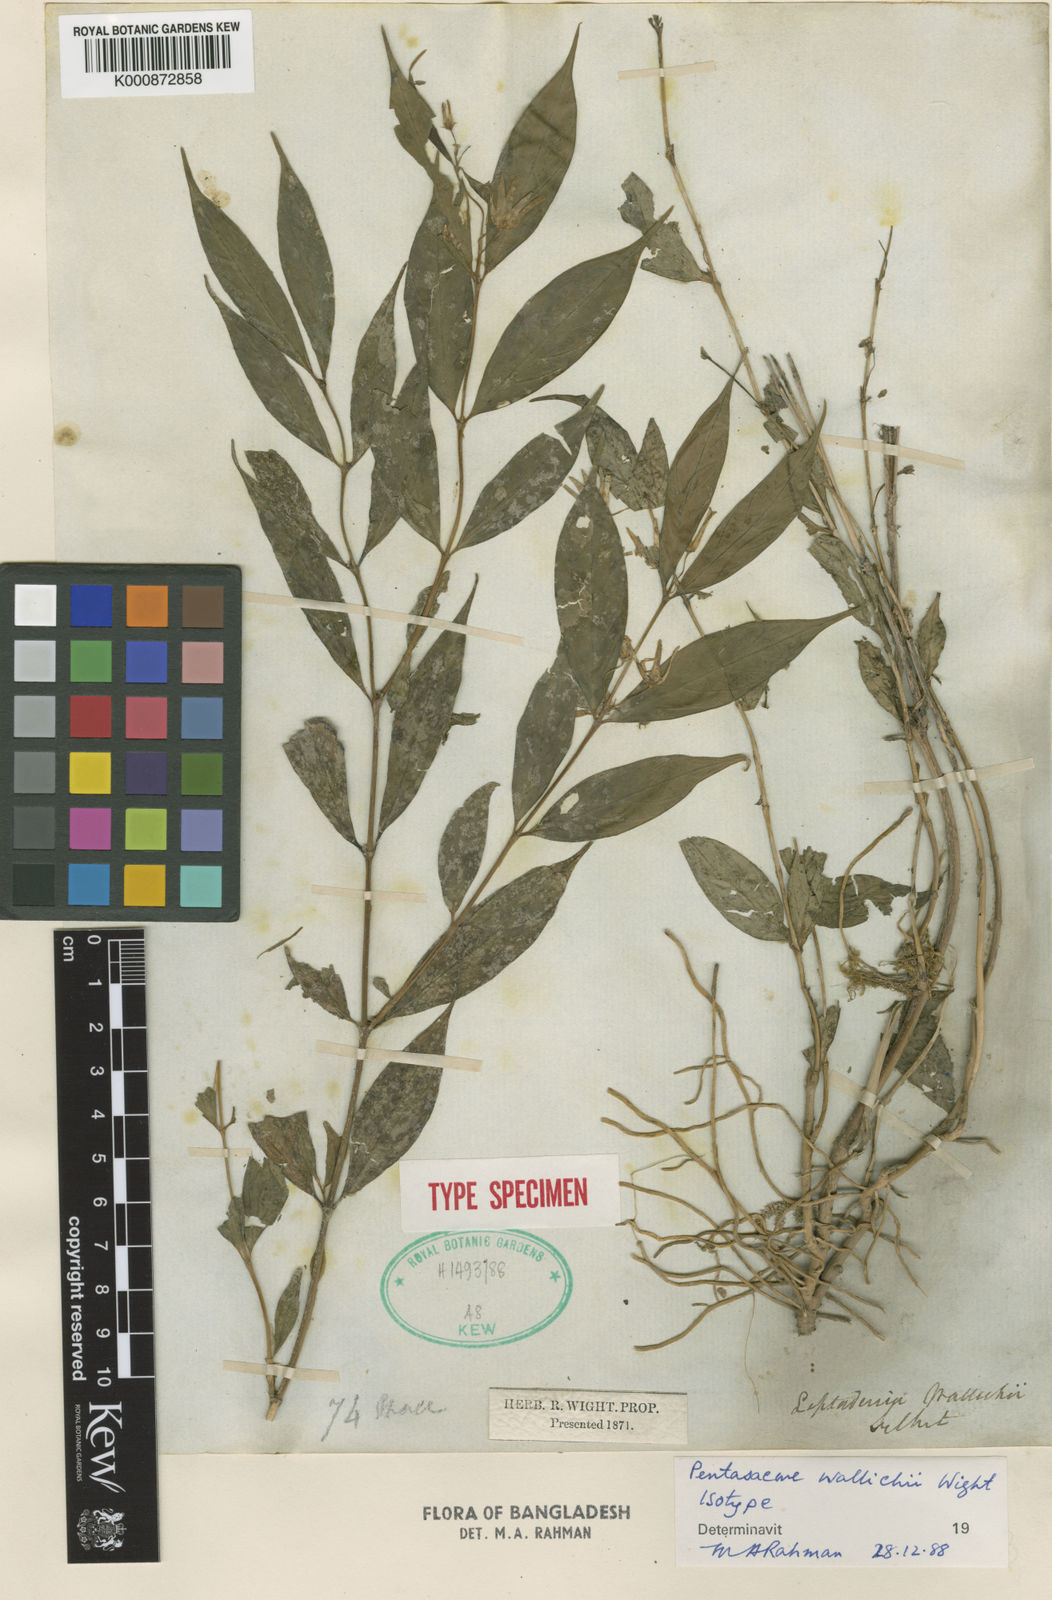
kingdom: Plantae
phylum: Tracheophyta
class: Magnoliopsida
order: Gentianales
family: Apocynaceae
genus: Pentasachme
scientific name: Pentasachme wallichii
